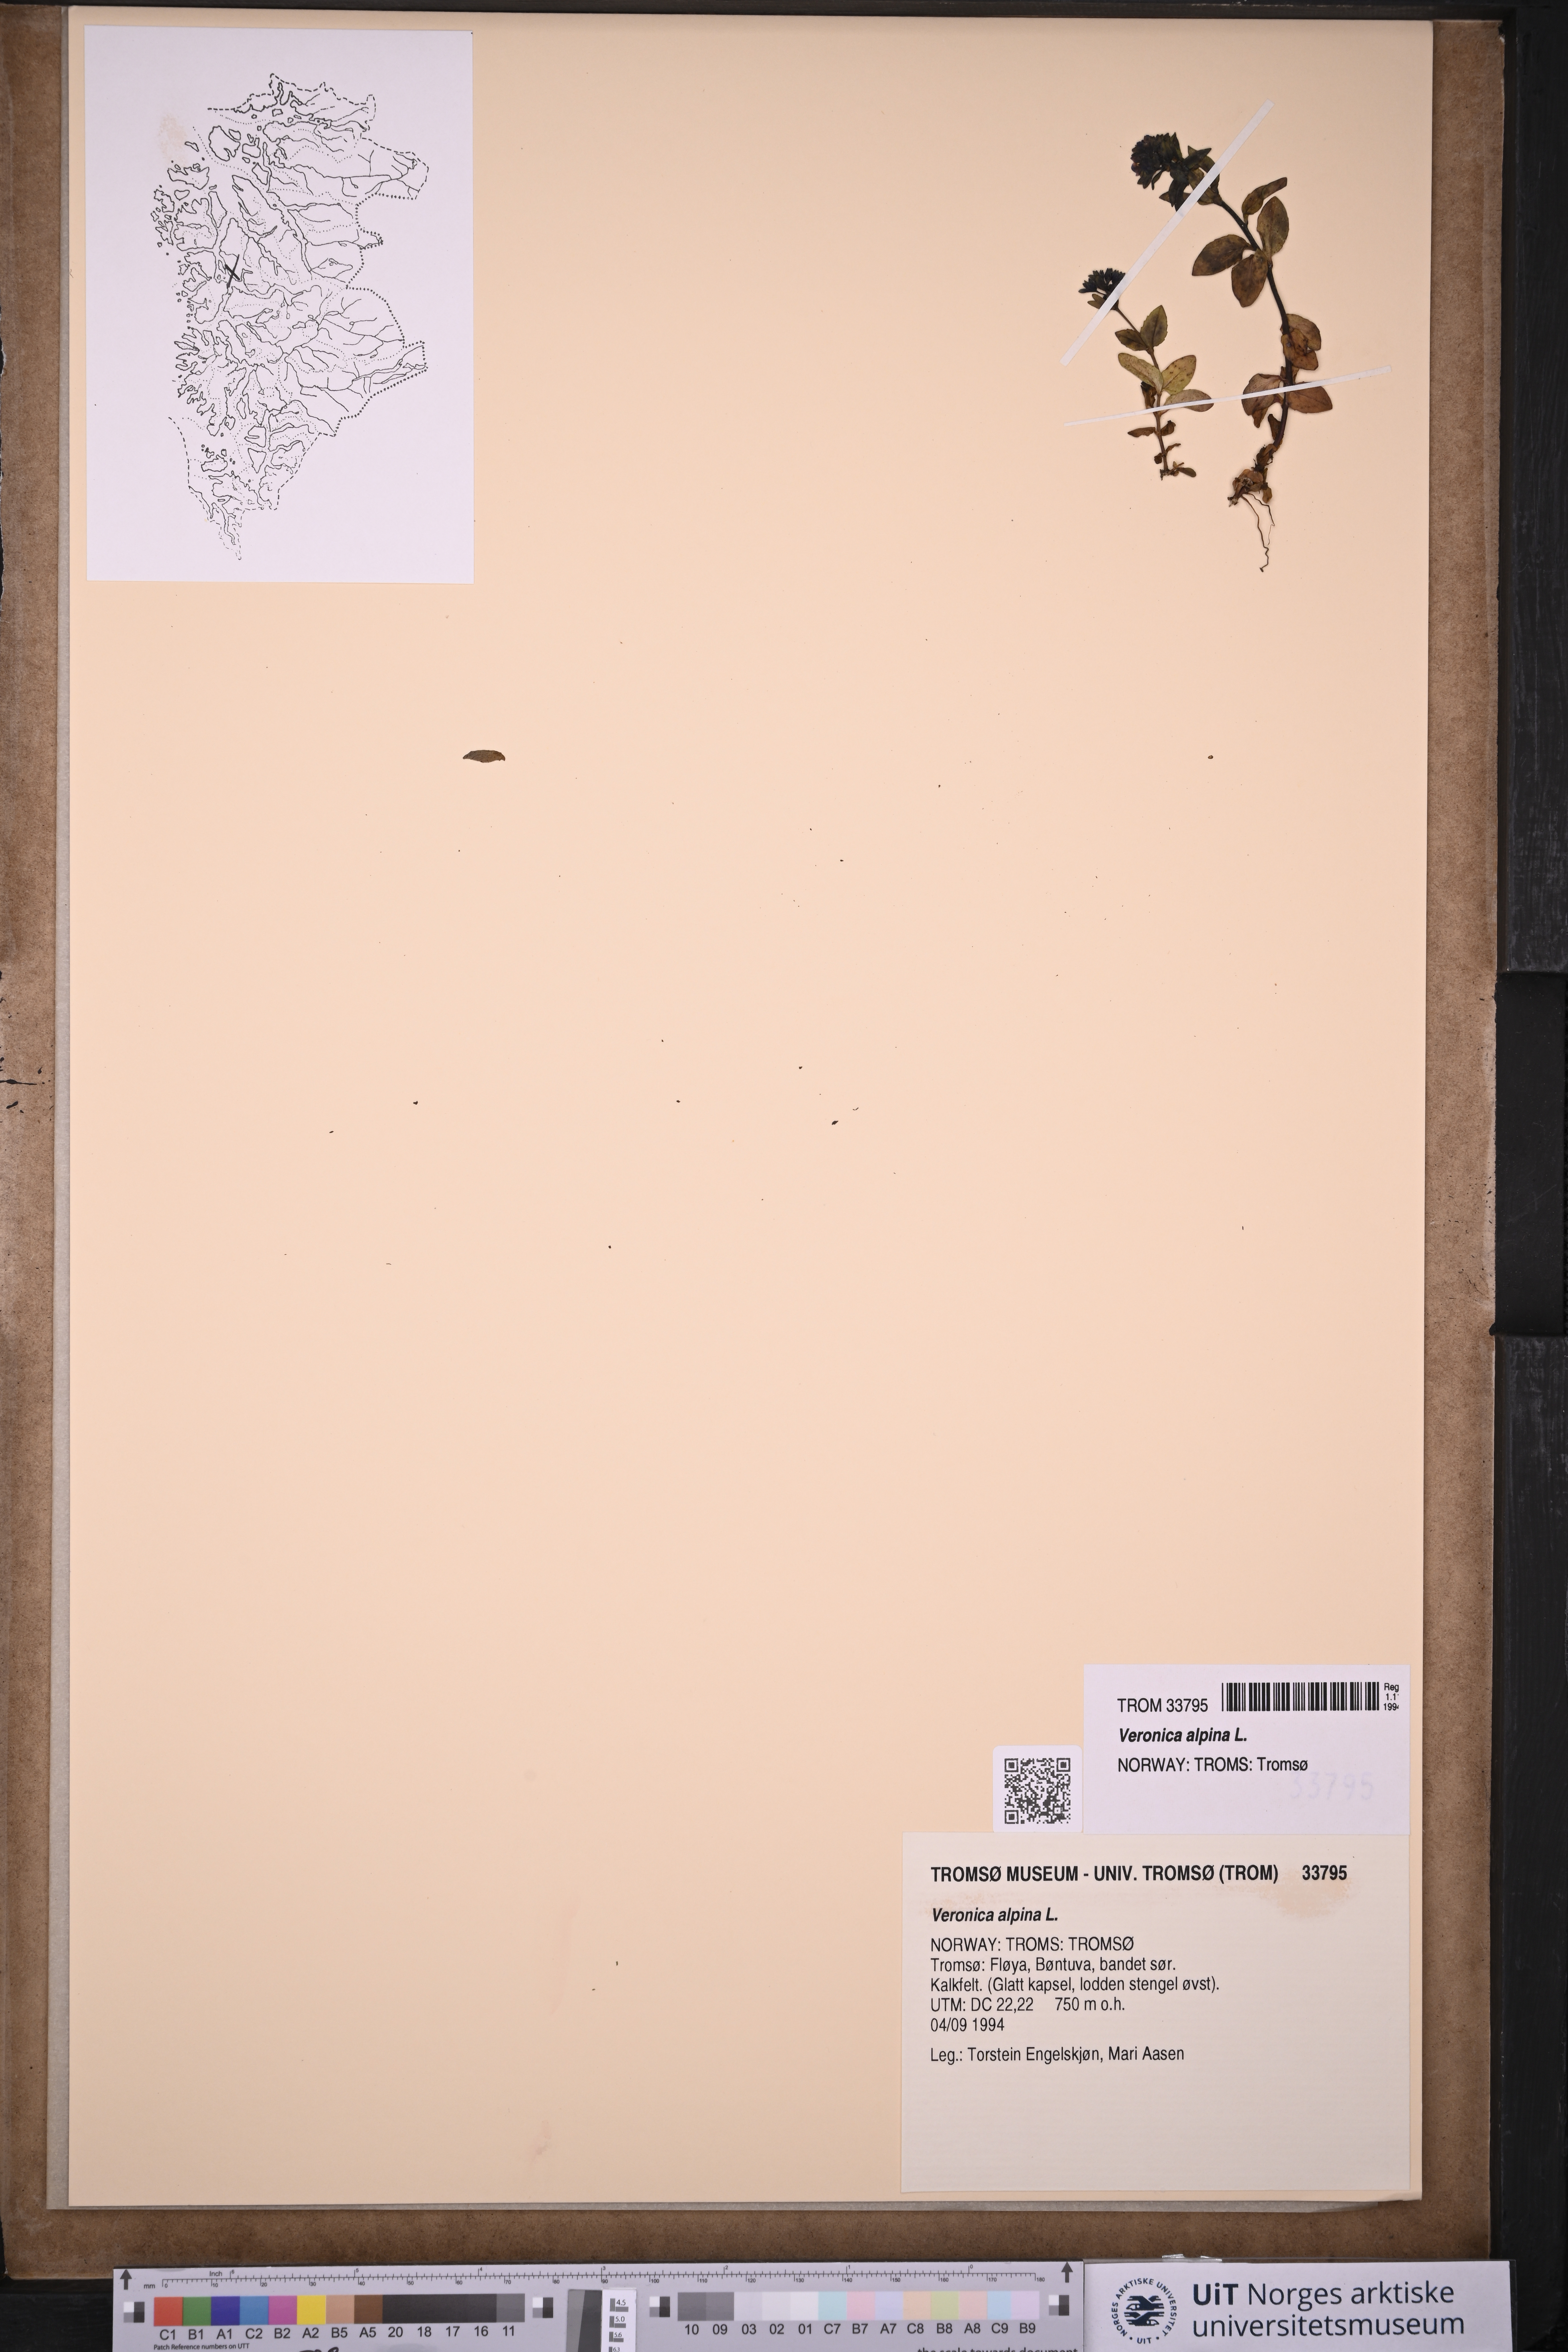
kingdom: Plantae
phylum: Tracheophyta
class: Magnoliopsida
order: Lamiales
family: Plantaginaceae
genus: Veronica
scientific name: Veronica alpina
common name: Alpine speedwell
